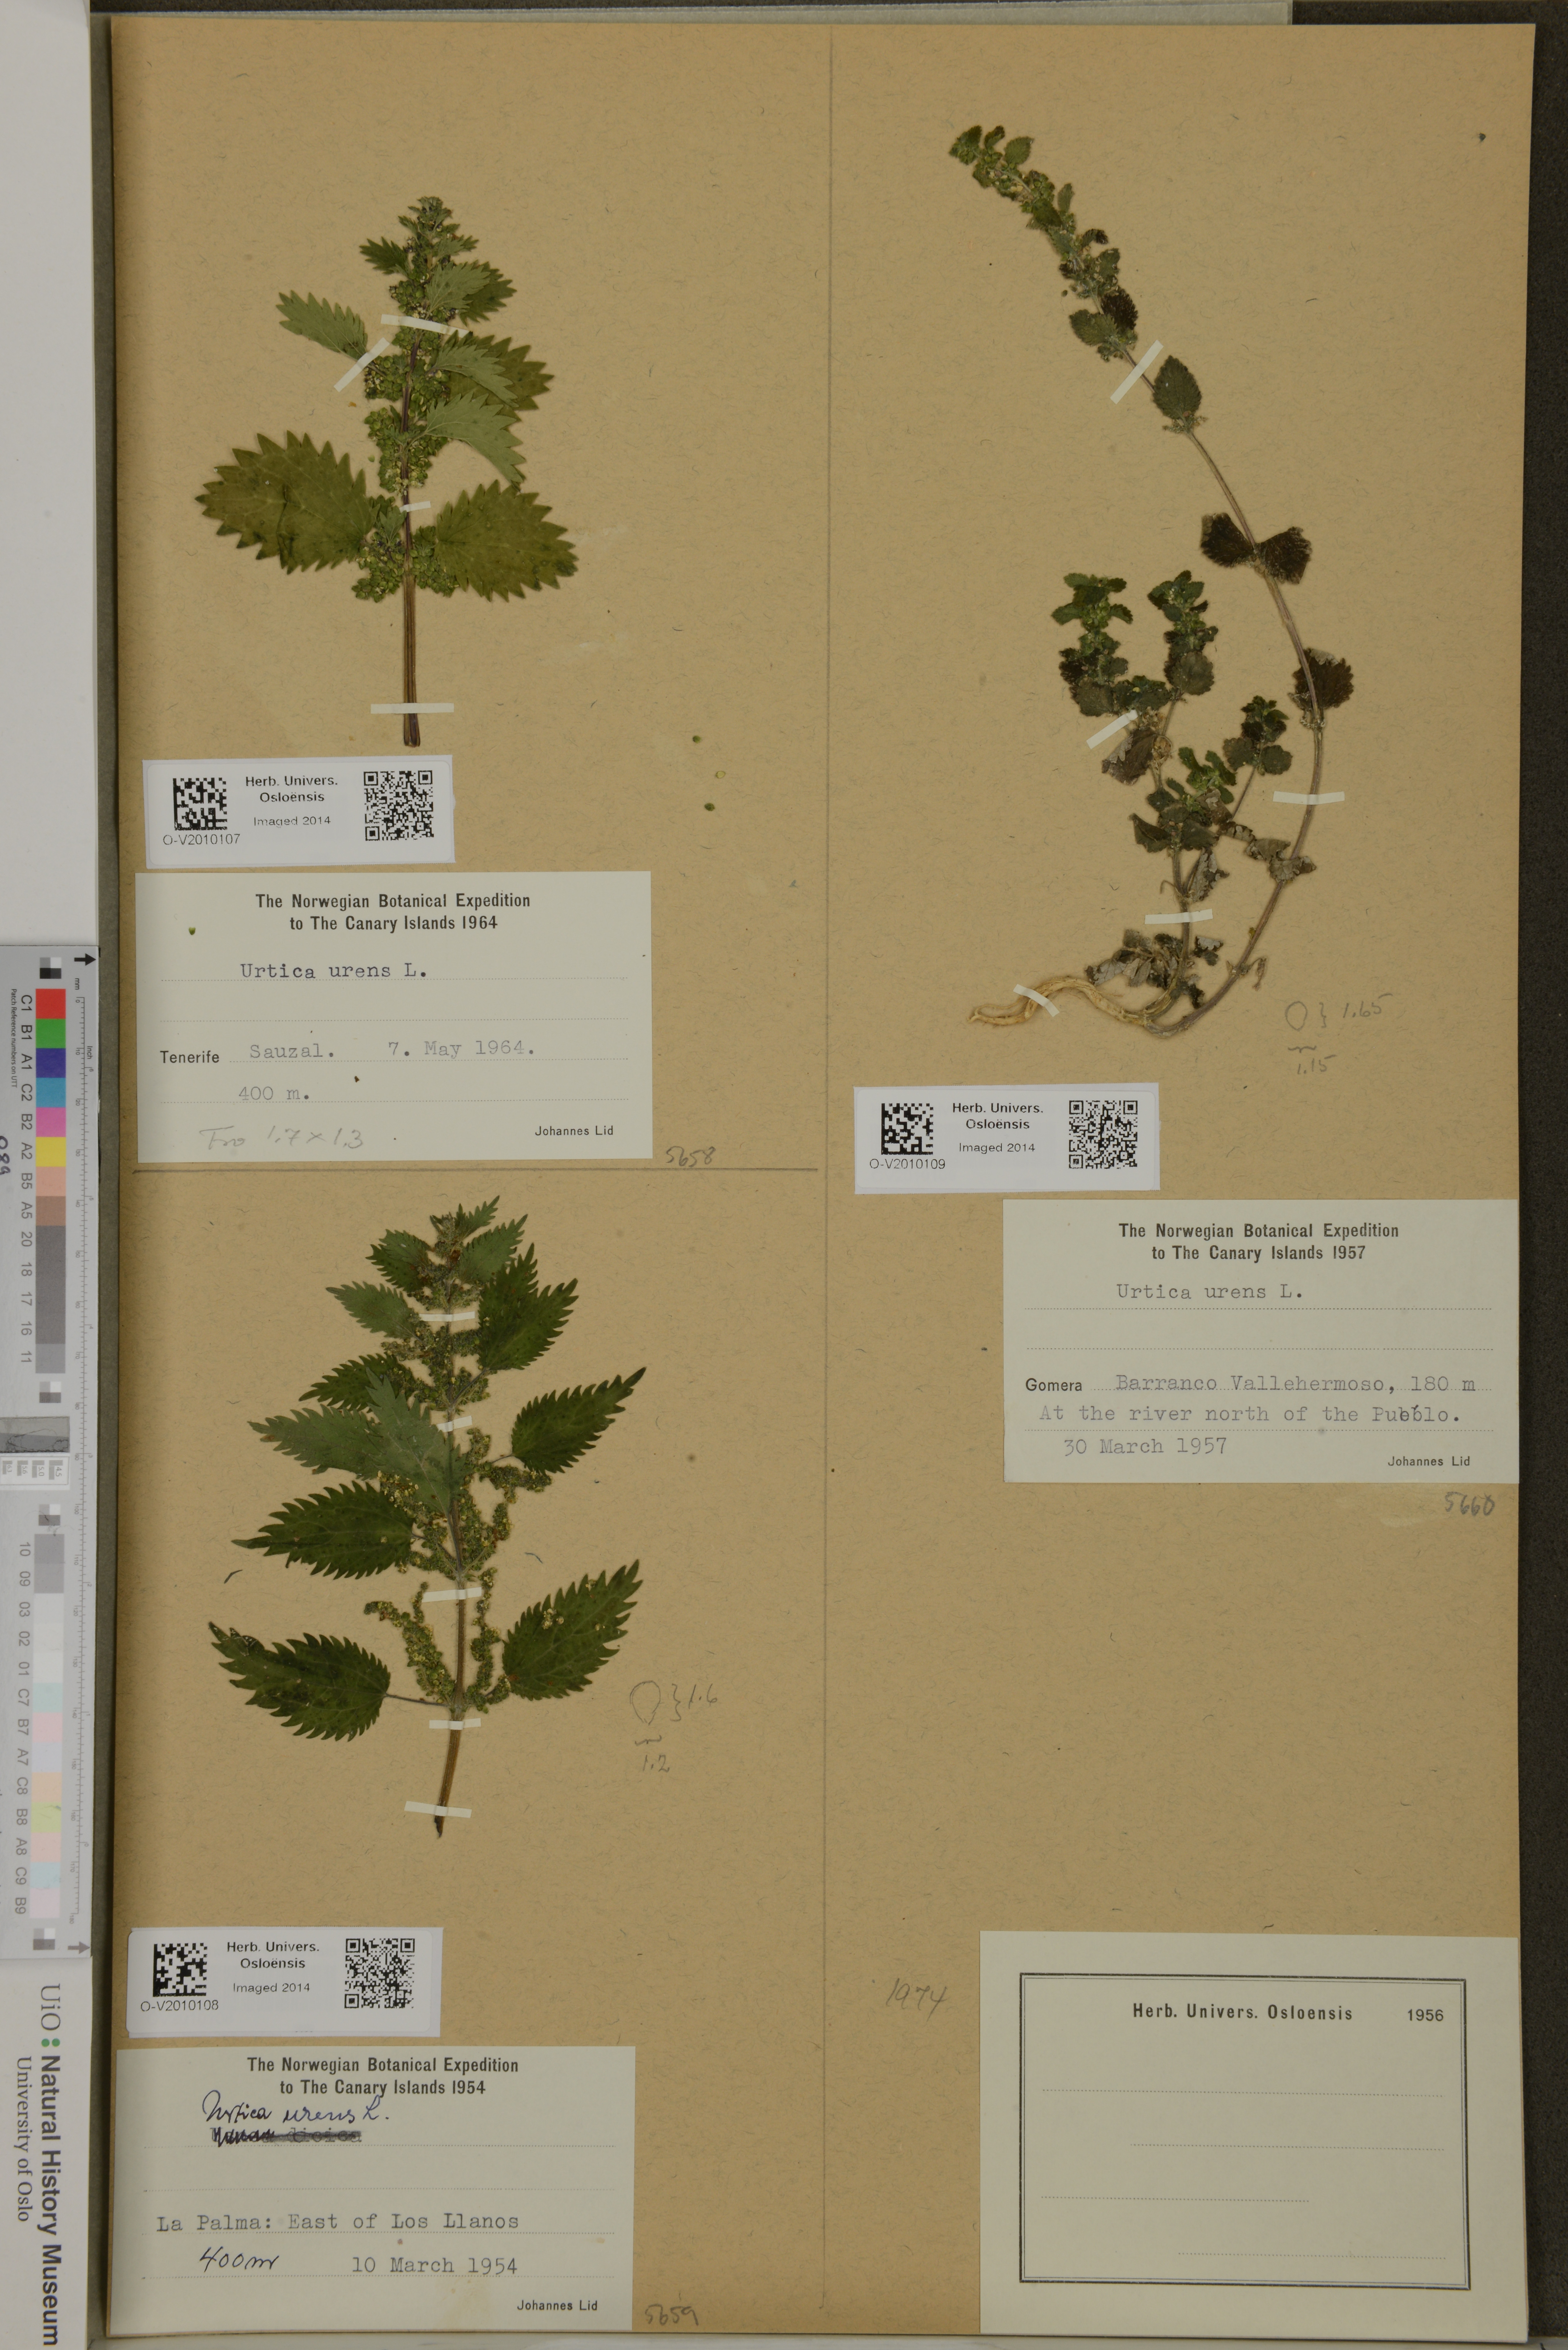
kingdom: Plantae
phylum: Tracheophyta
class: Magnoliopsida
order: Rosales
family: Urticaceae
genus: Urtica
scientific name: Urtica urens
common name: Dwarf nettle
